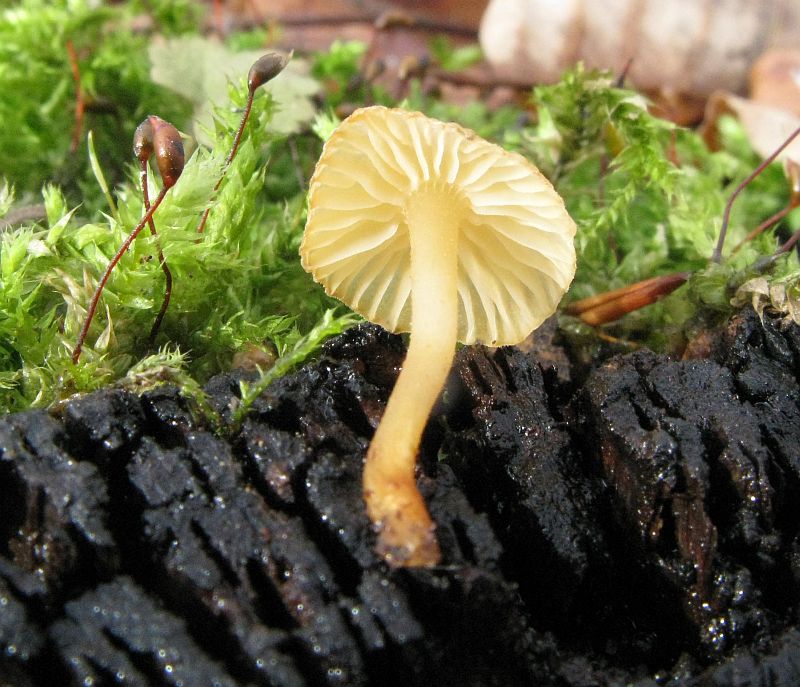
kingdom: Fungi
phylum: Basidiomycota
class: Agaricomycetes
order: Agaricales
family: Physalacriaceae
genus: Flammulina
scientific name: Flammulina velutipes
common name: gul fløjlsfod
